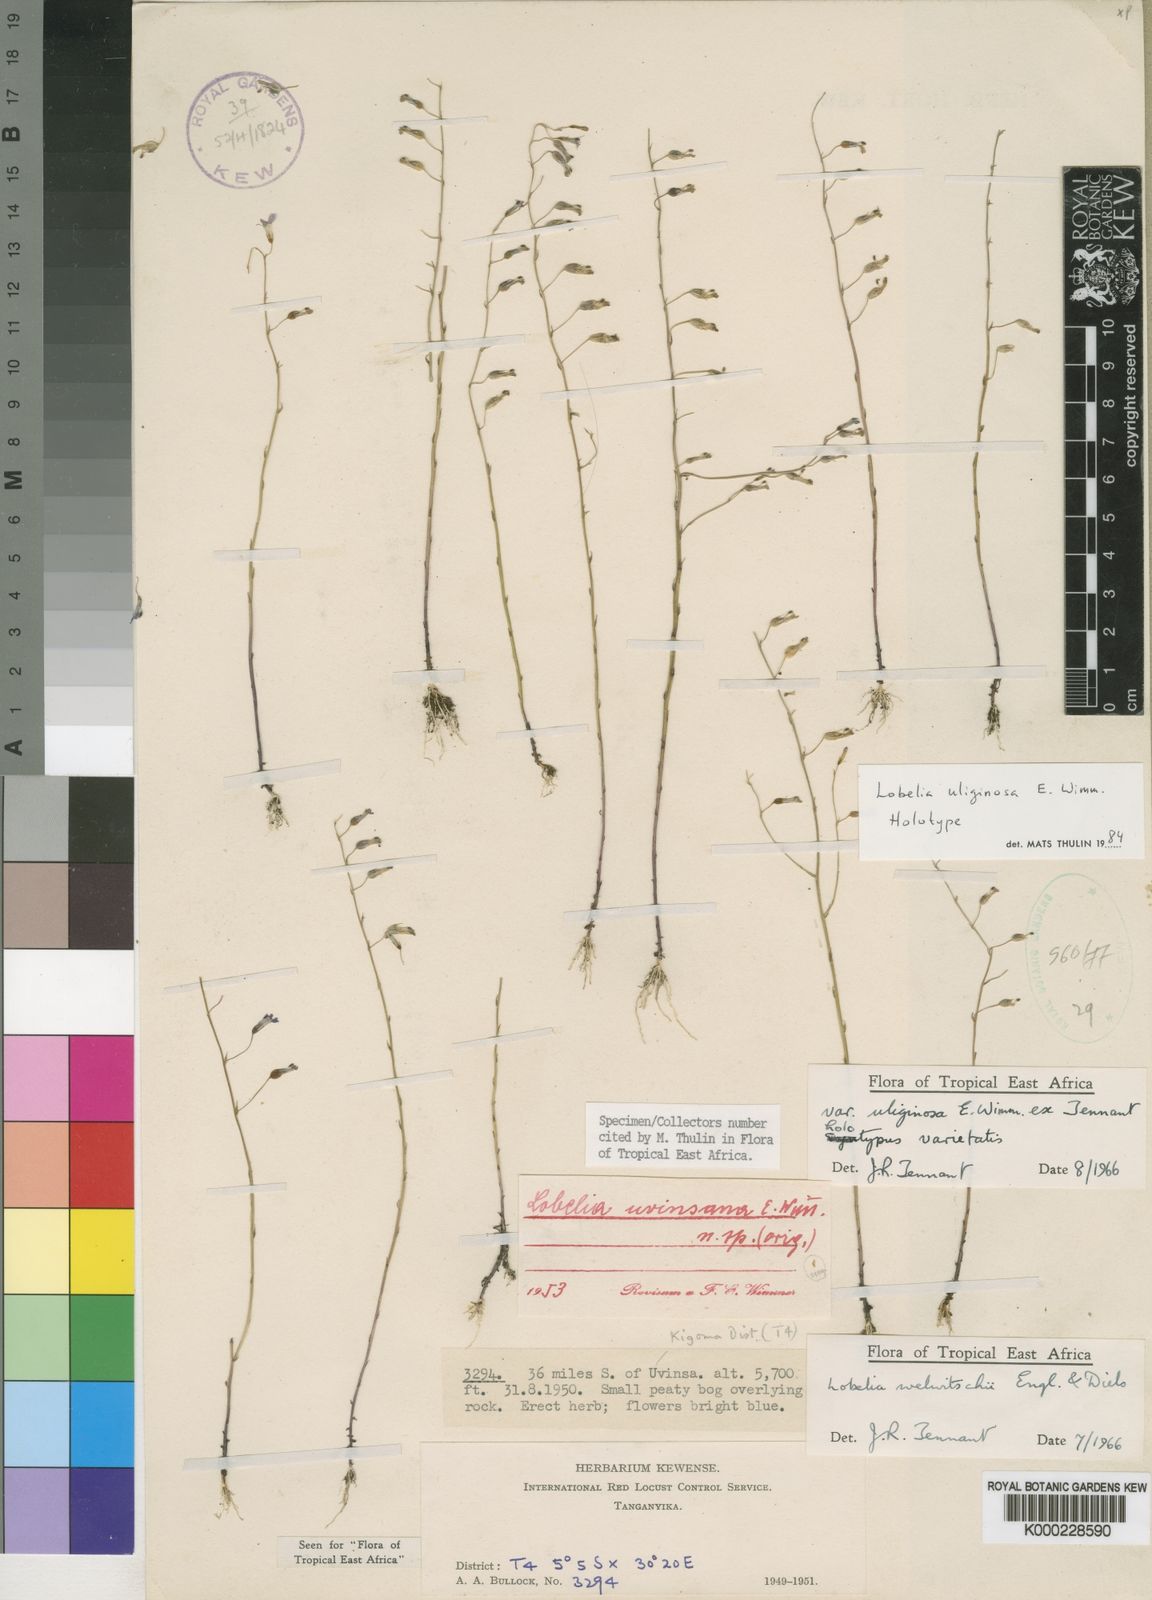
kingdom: Plantae
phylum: Tracheophyta
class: Magnoliopsida
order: Asterales
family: Campanulaceae
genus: Lobelia
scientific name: Lobelia welwitschii
